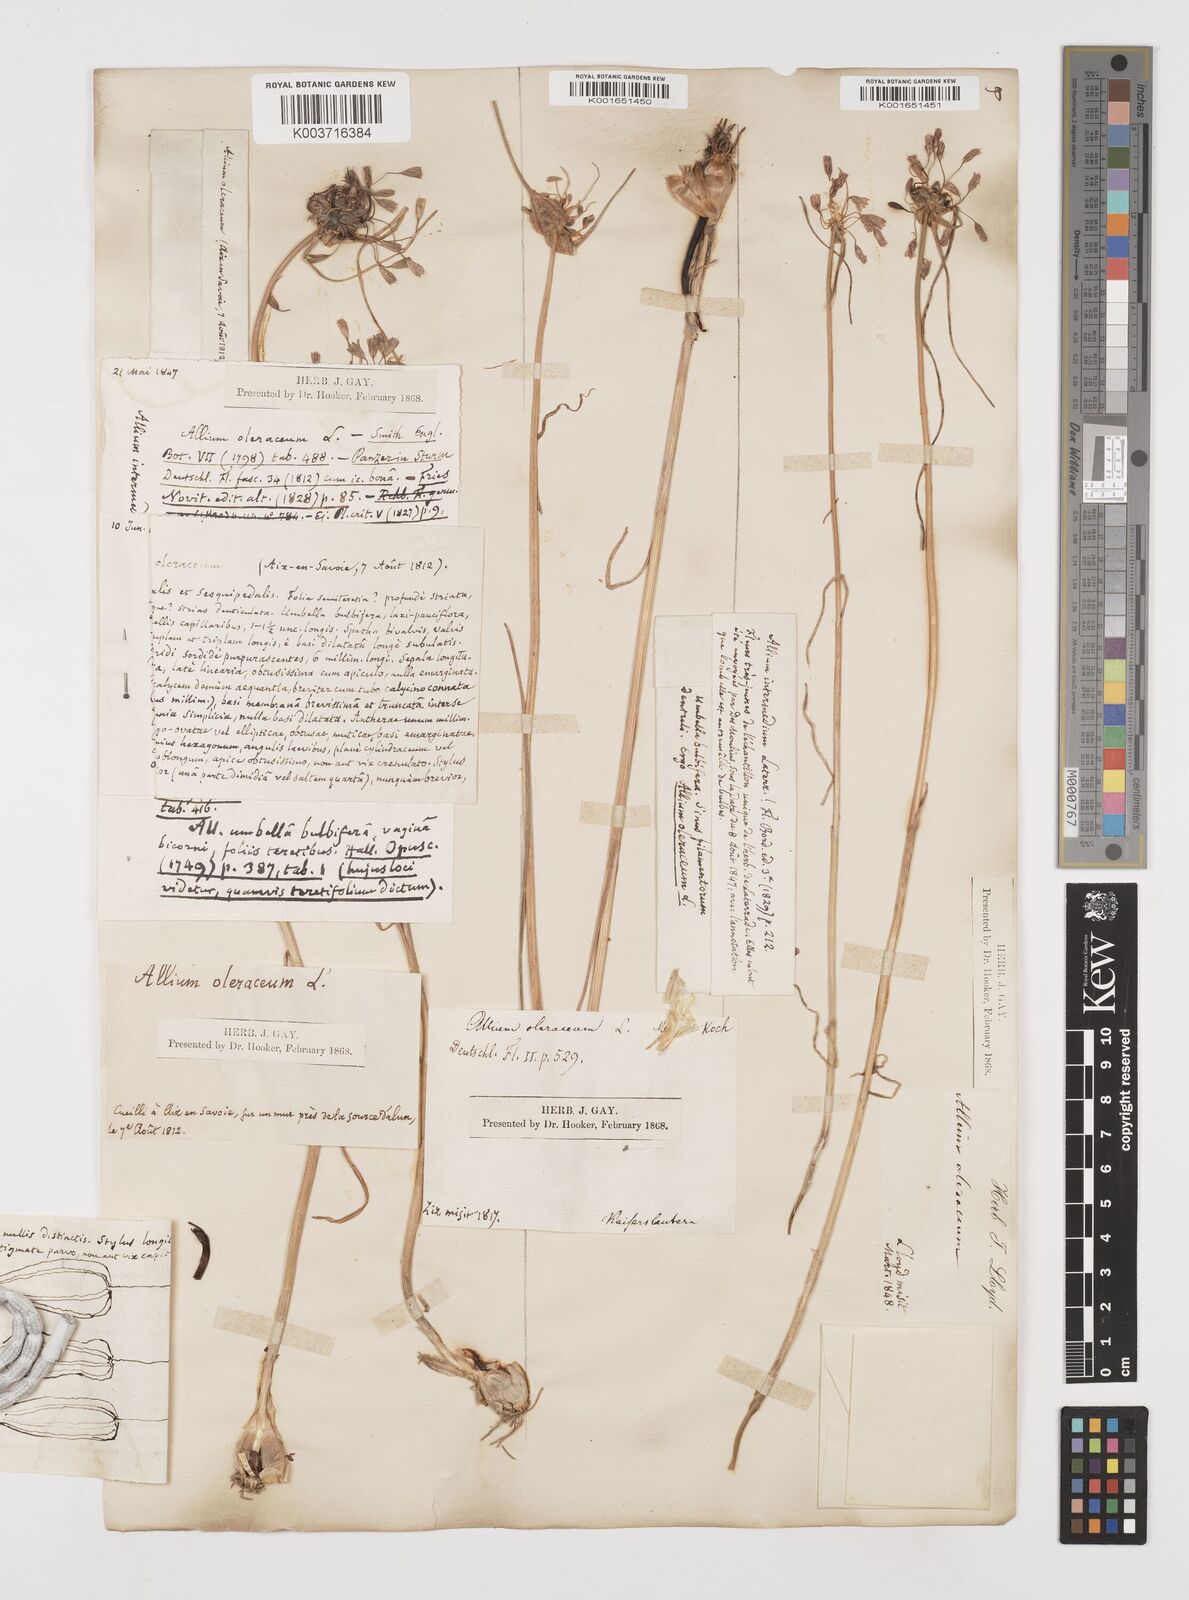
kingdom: Plantae
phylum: Tracheophyta
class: Liliopsida
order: Asparagales
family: Amaryllidaceae
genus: Allium
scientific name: Allium oleraceum
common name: Field garlic
